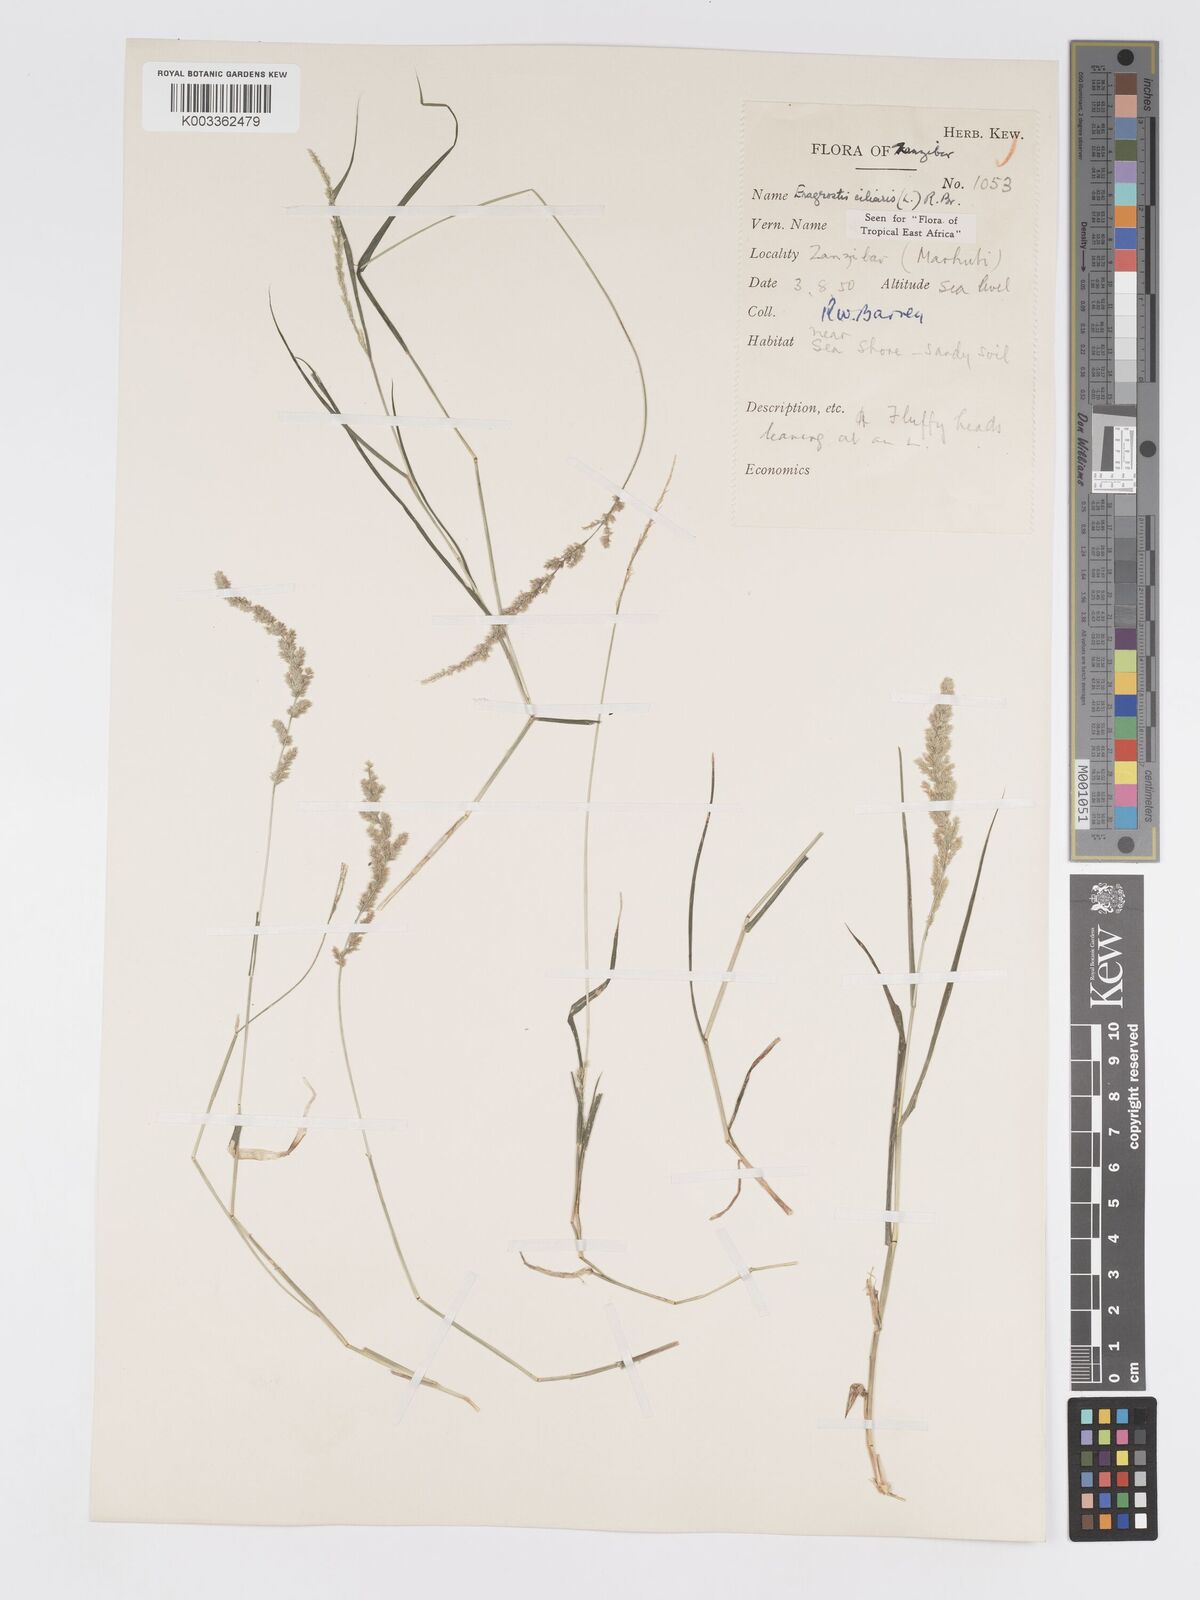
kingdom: Plantae
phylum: Tracheophyta
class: Liliopsida
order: Poales
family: Poaceae
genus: Eragrostis
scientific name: Eragrostis ciliaris
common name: Gophertail lovegrass
